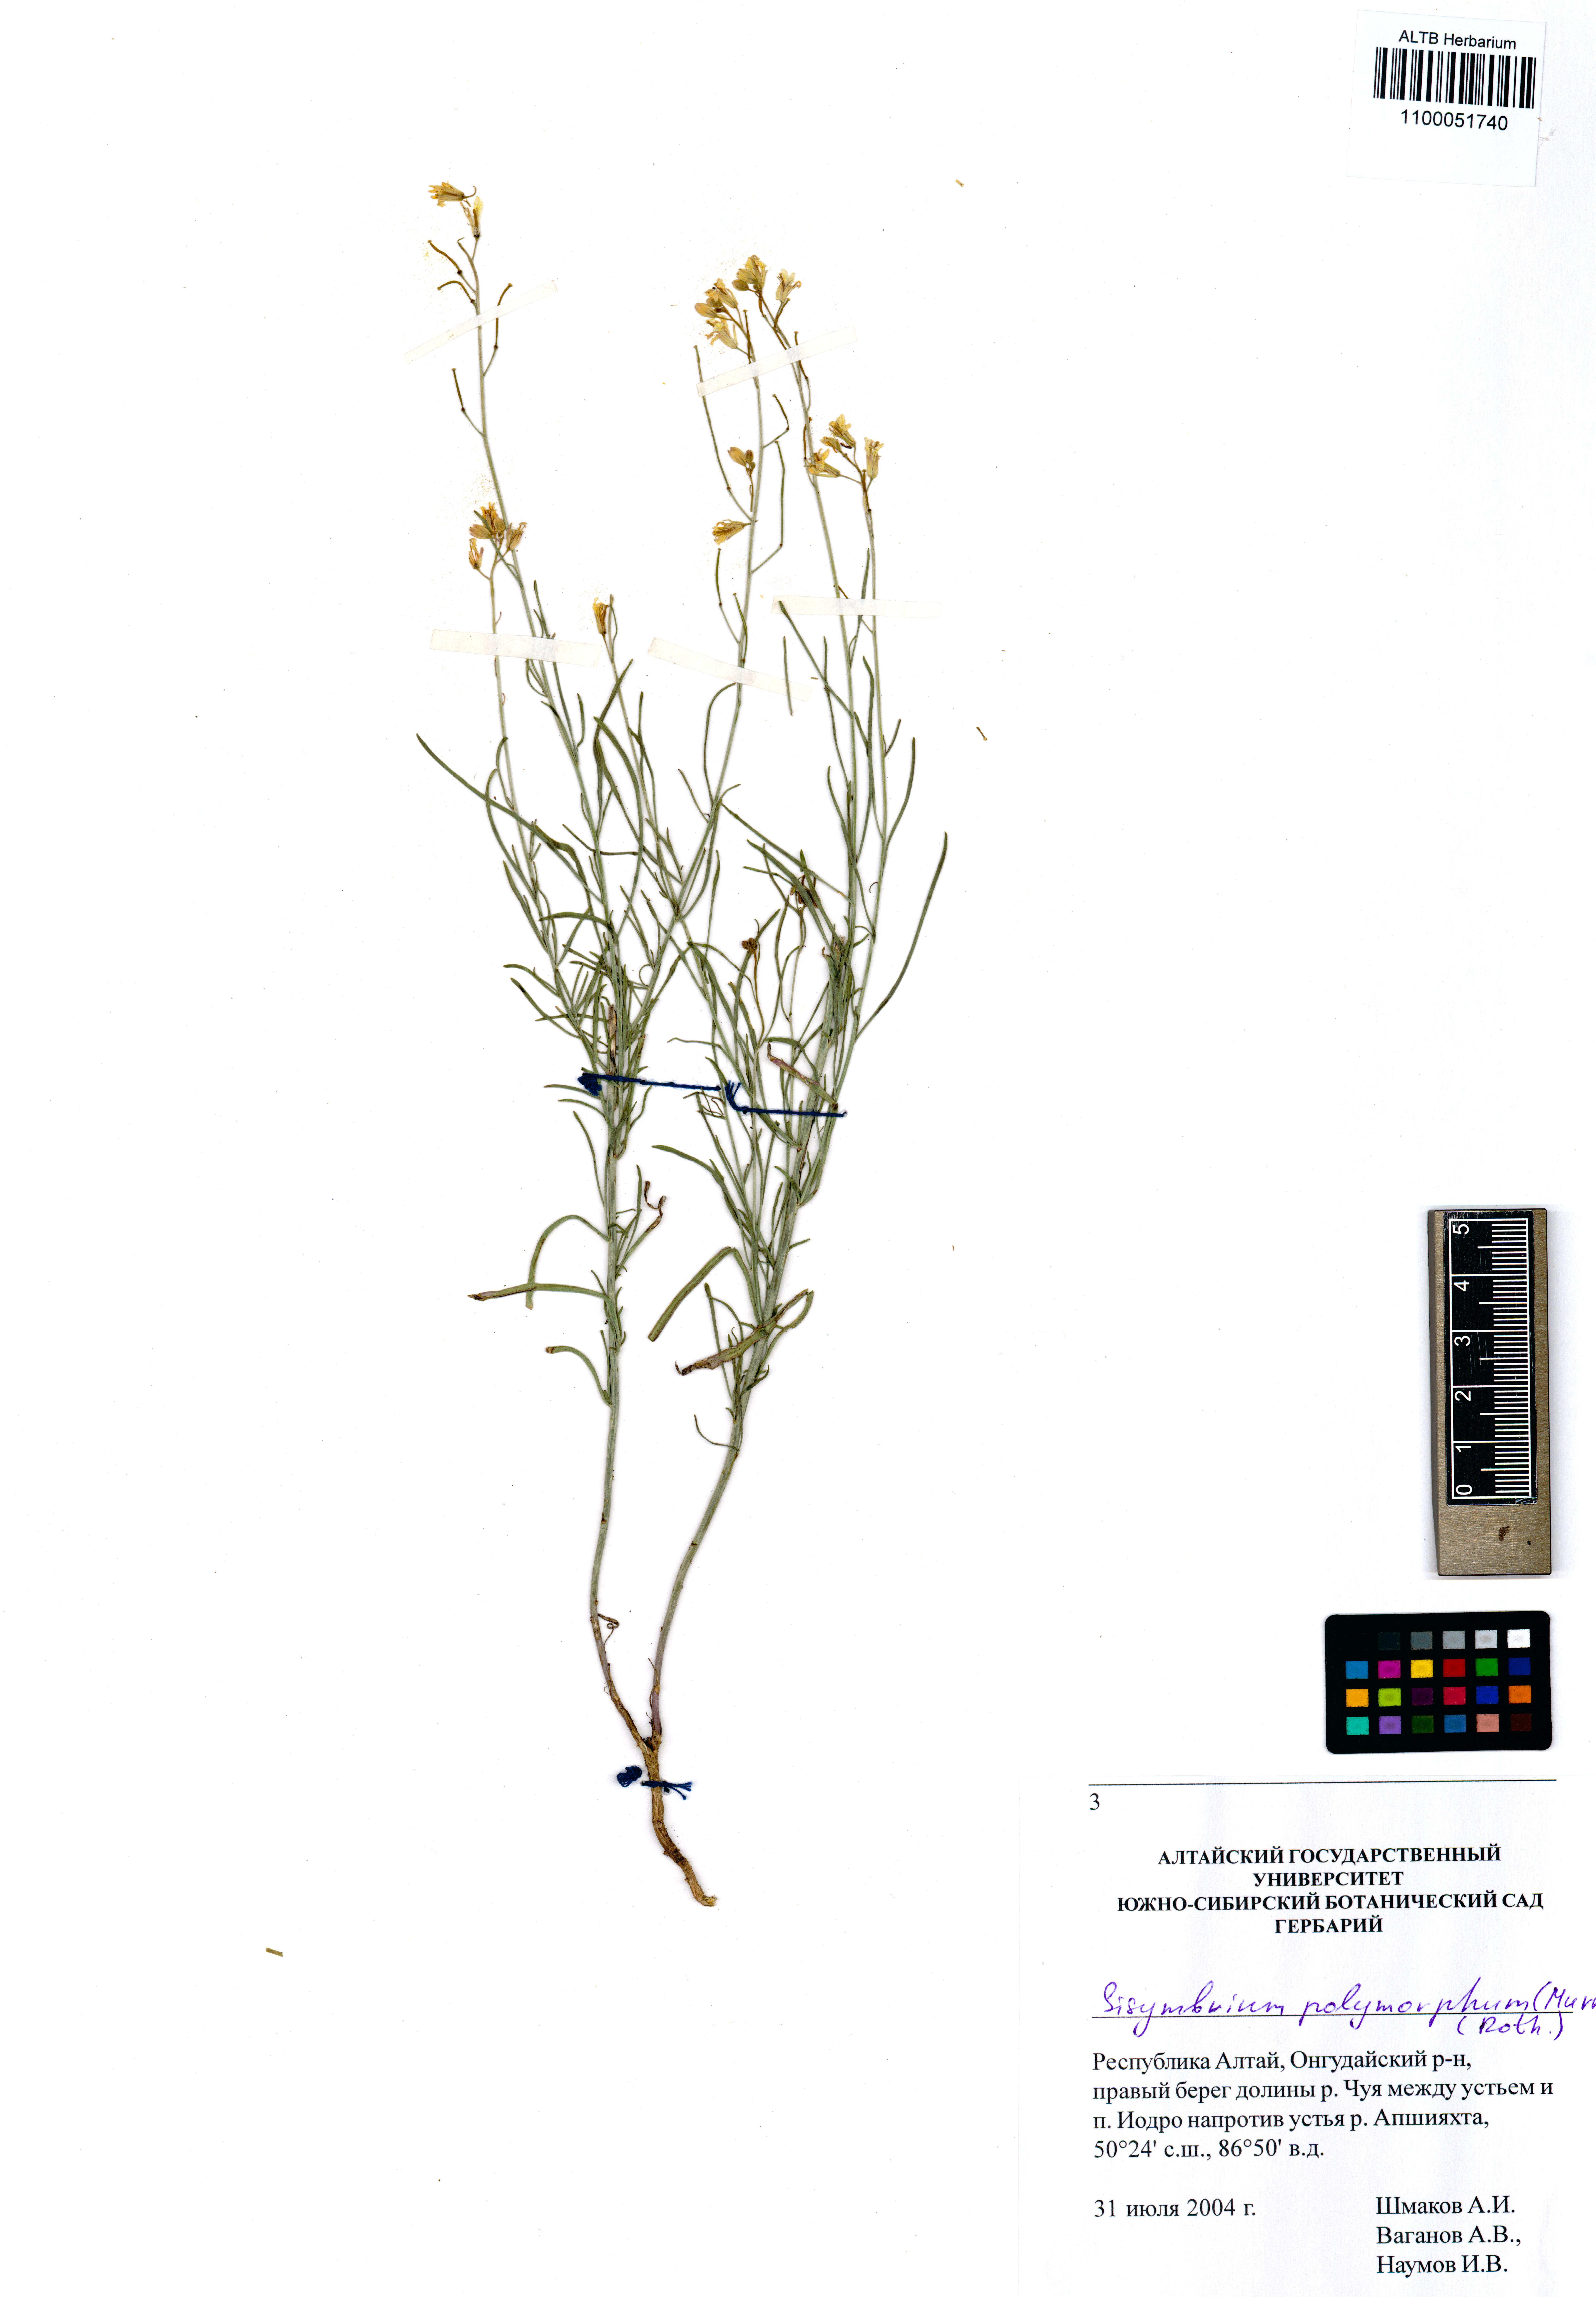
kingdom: Plantae
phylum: Tracheophyta
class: Magnoliopsida
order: Brassicales
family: Brassicaceae
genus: Sisymbrium
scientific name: Sisymbrium polymorphum
